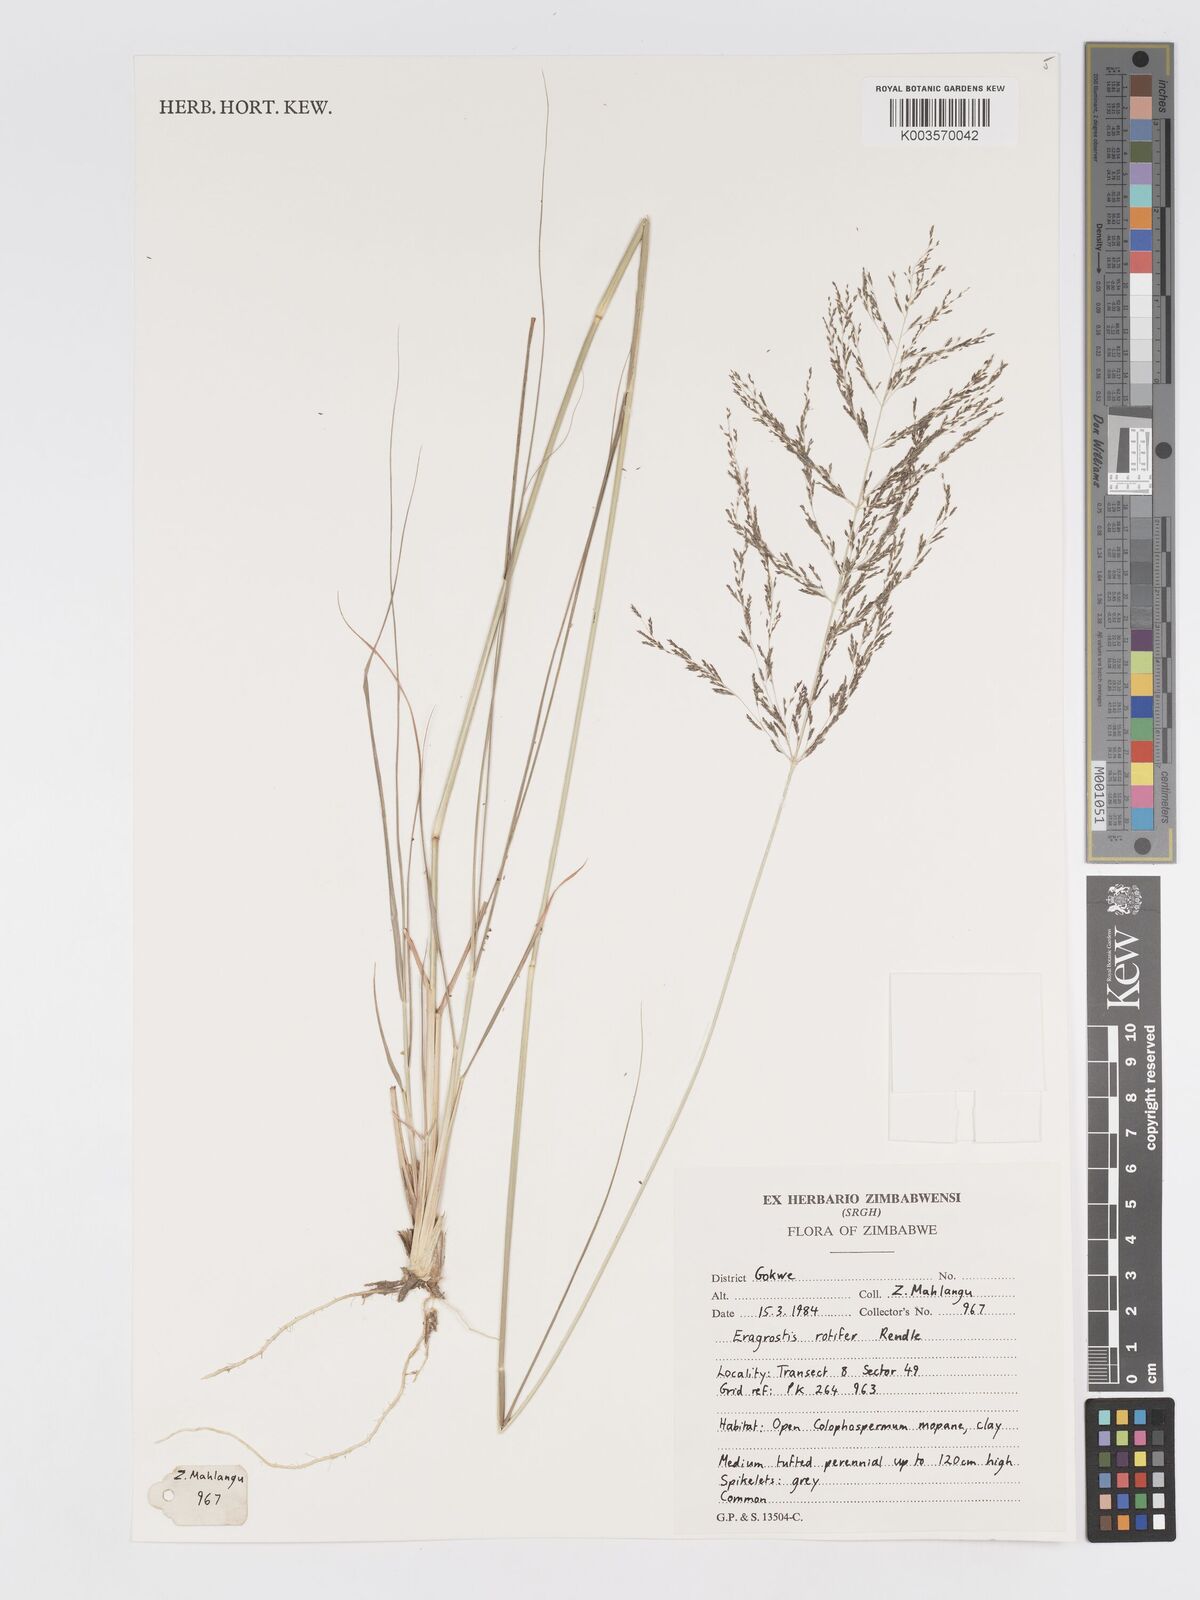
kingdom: Plantae
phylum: Tracheophyta
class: Liliopsida
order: Poales
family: Poaceae
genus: Eragrostis
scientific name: Eragrostis rotifer
